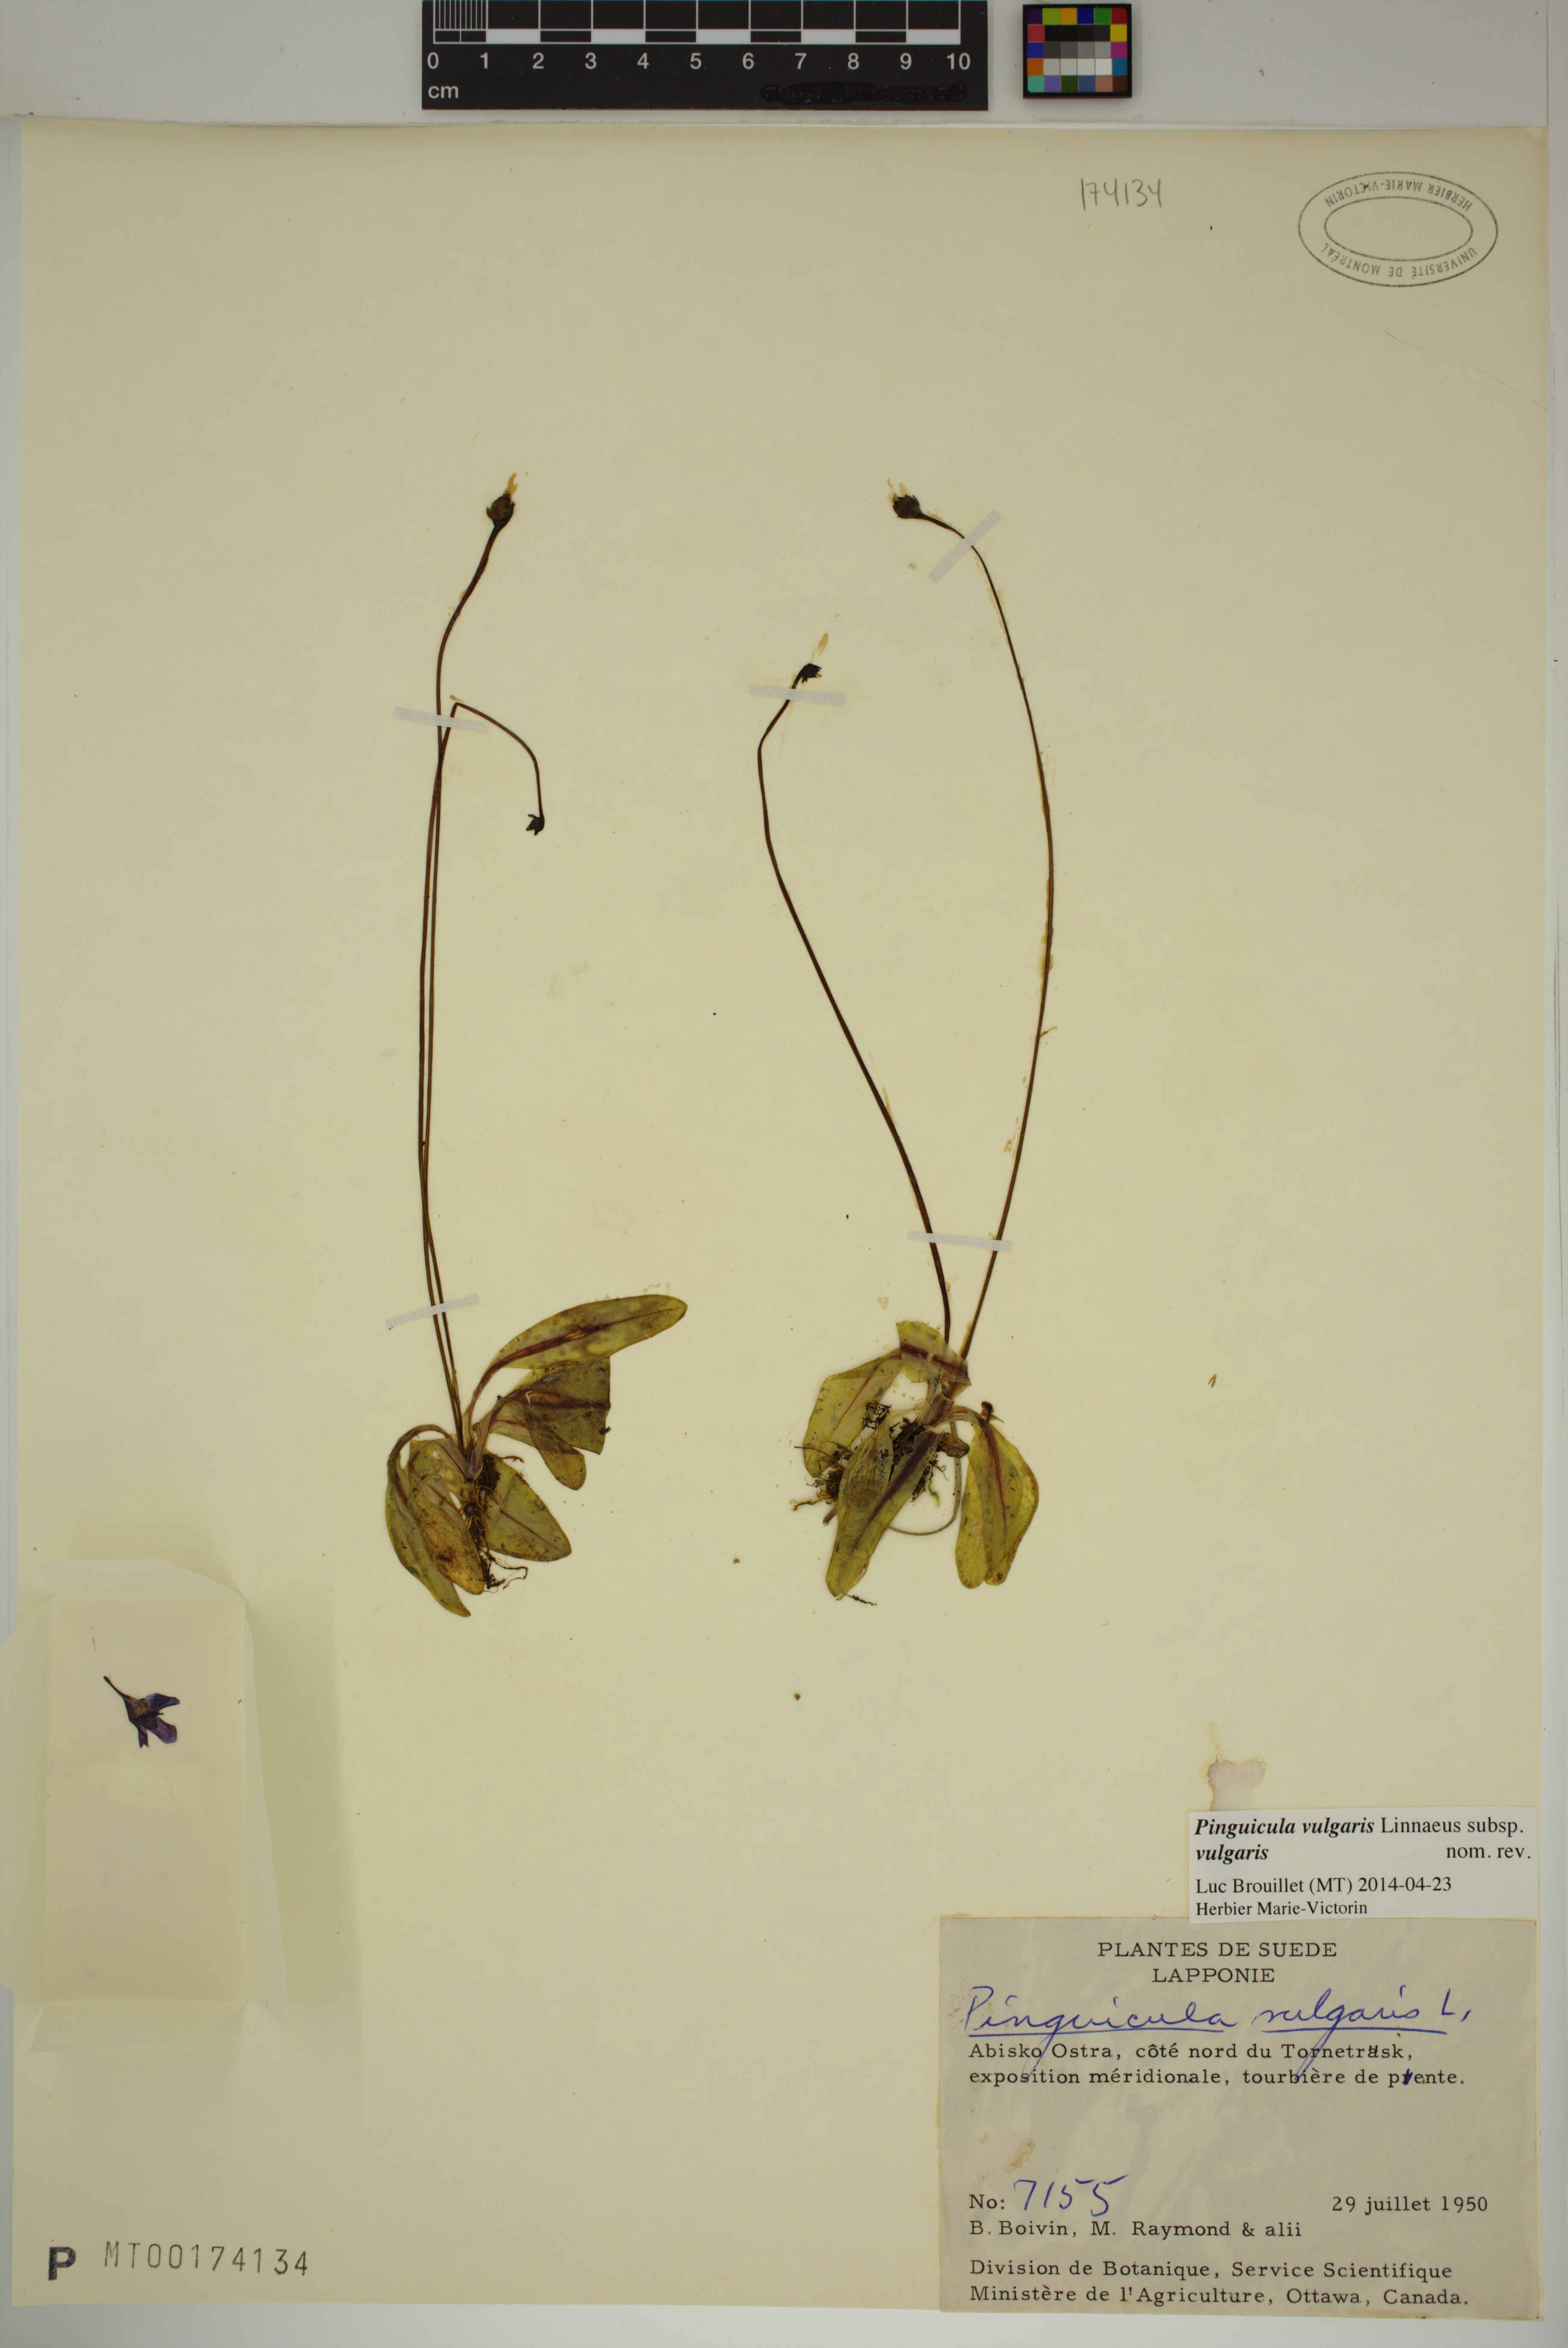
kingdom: Plantae
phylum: Tracheophyta
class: Magnoliopsida
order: Lamiales
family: Lentibulariaceae
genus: Pinguicula
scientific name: Pinguicula vulgaris
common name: Common butterwort
